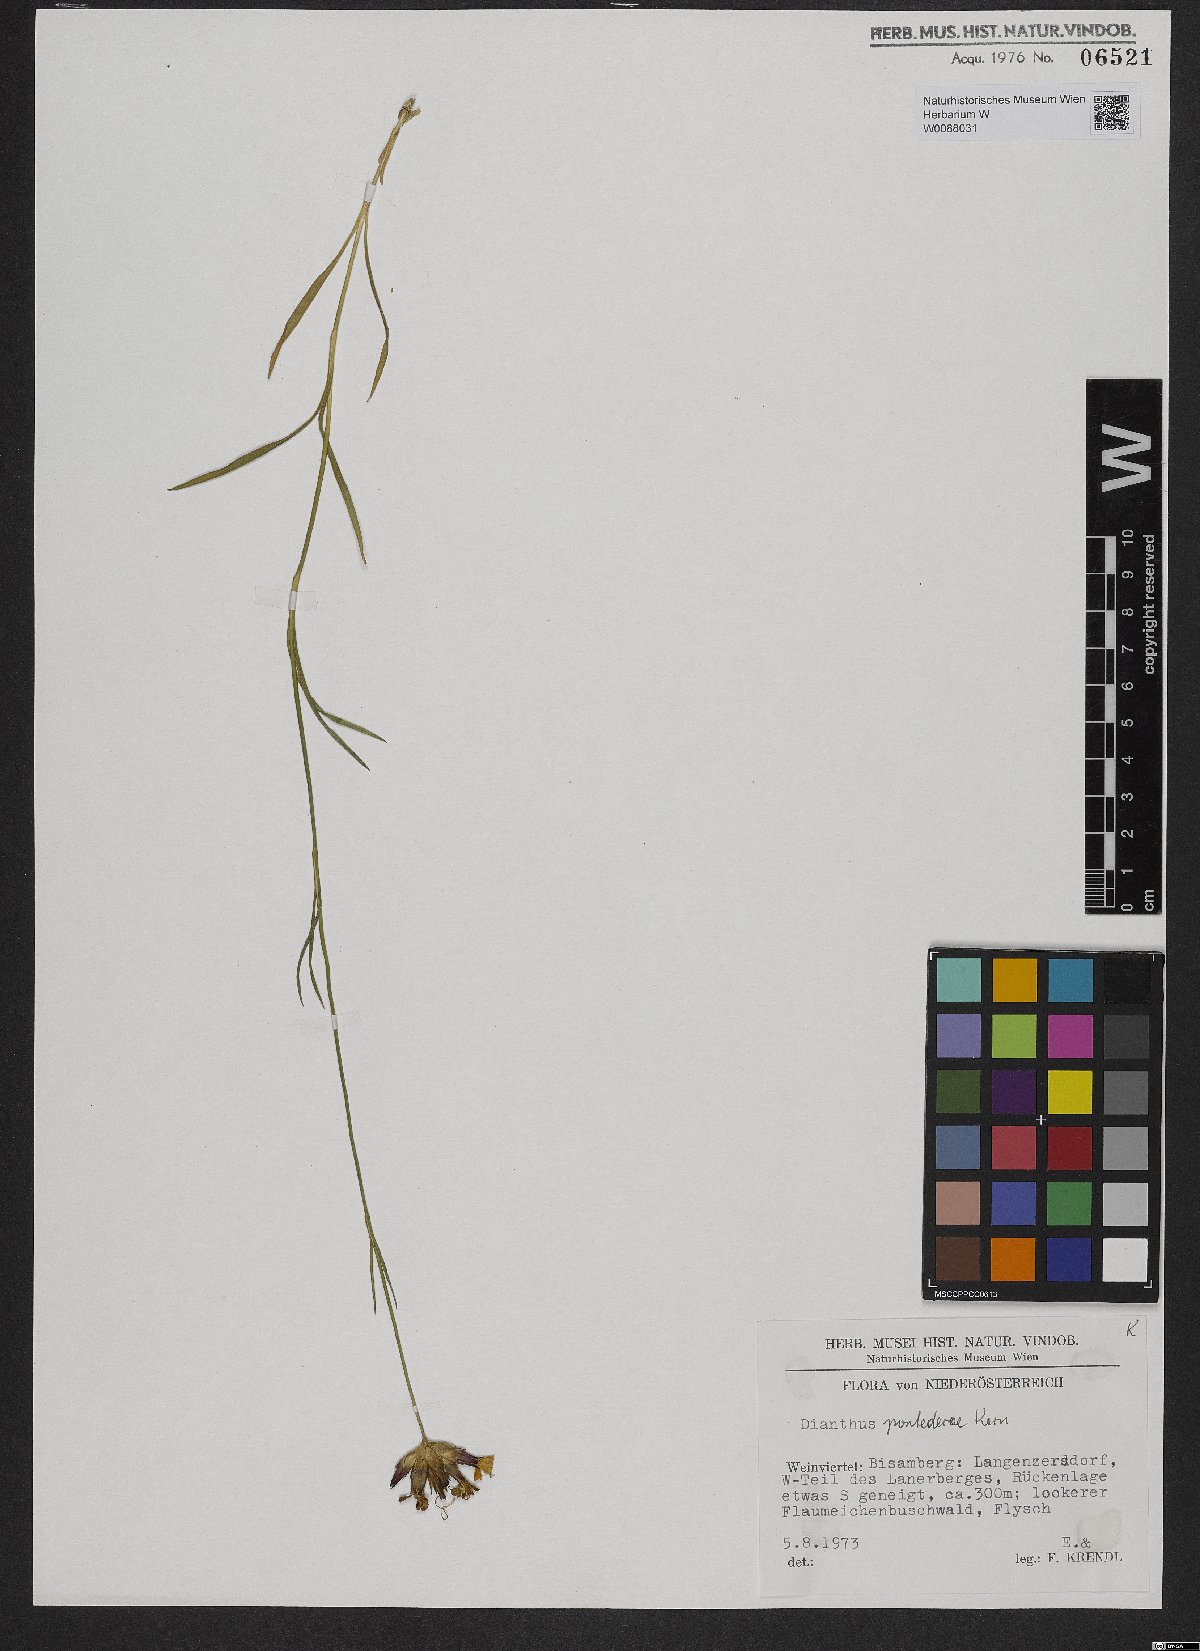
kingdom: Plantae
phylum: Tracheophyta
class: Magnoliopsida
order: Caryophyllales
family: Caryophyllaceae
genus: Dianthus
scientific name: Dianthus pontederae
